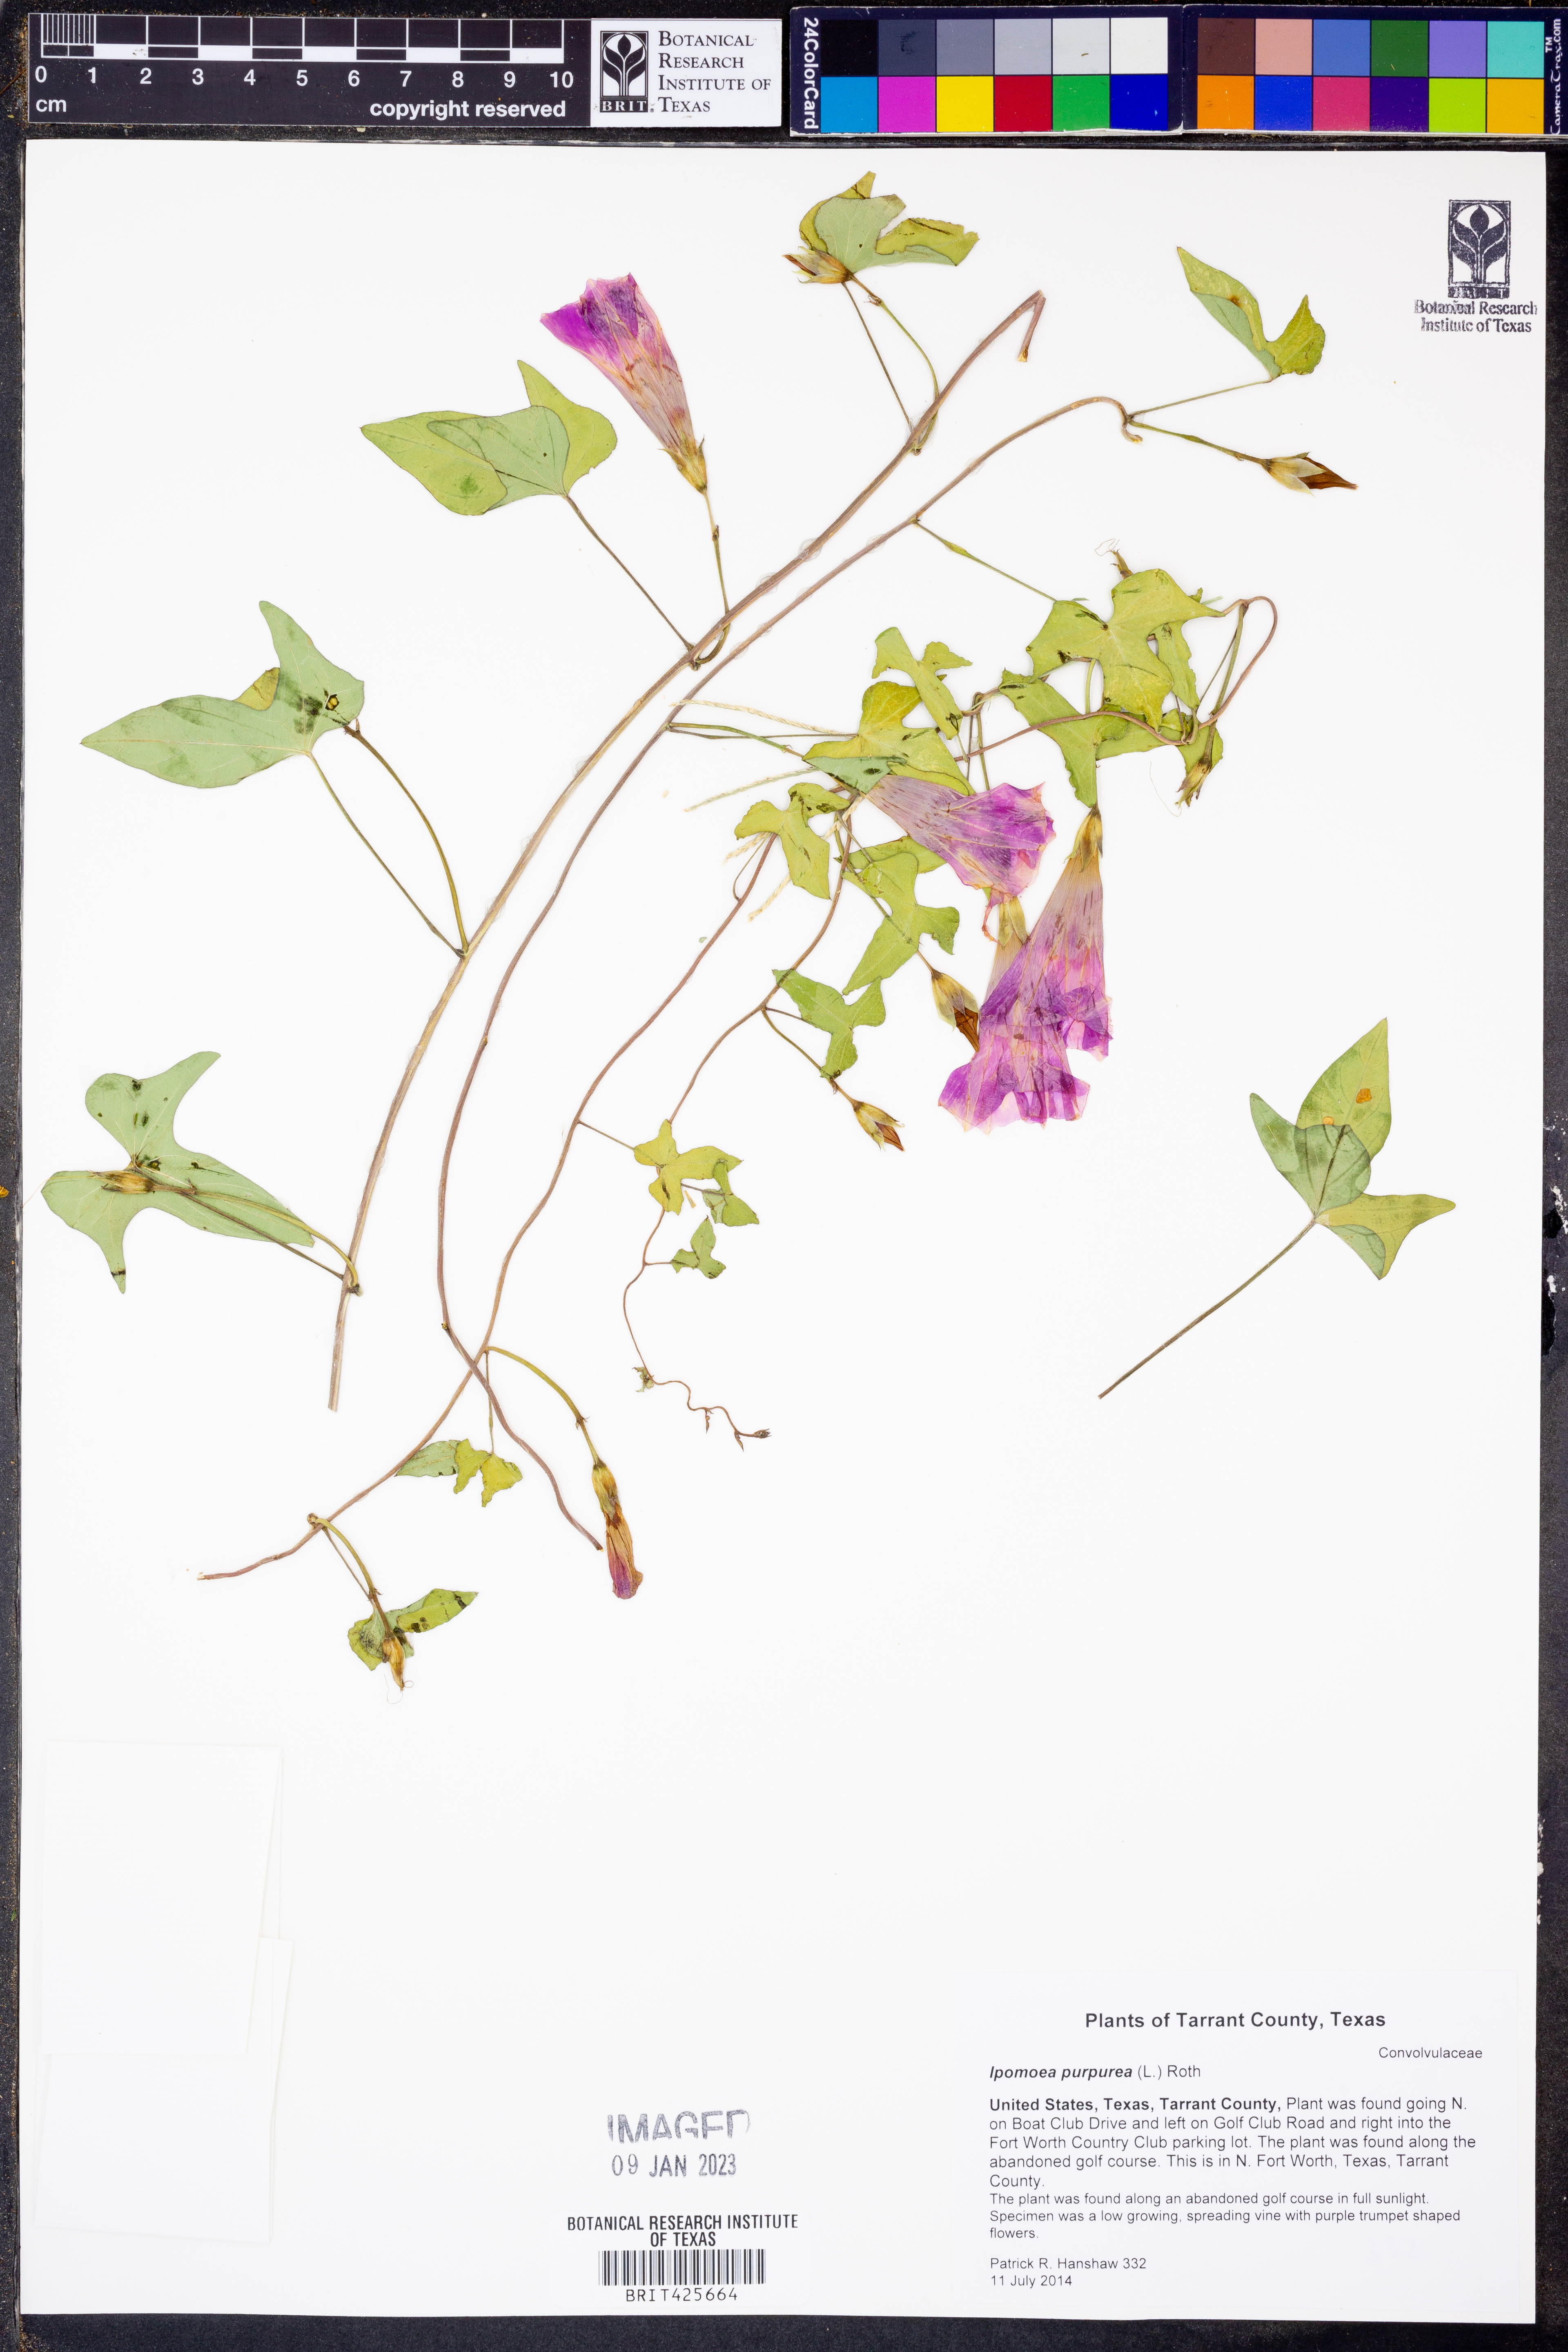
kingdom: Plantae
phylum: Tracheophyta
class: Magnoliopsida
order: Solanales
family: Convolvulaceae
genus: Ipomoea
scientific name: Ipomoea purpurea
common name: Common morning-glory
